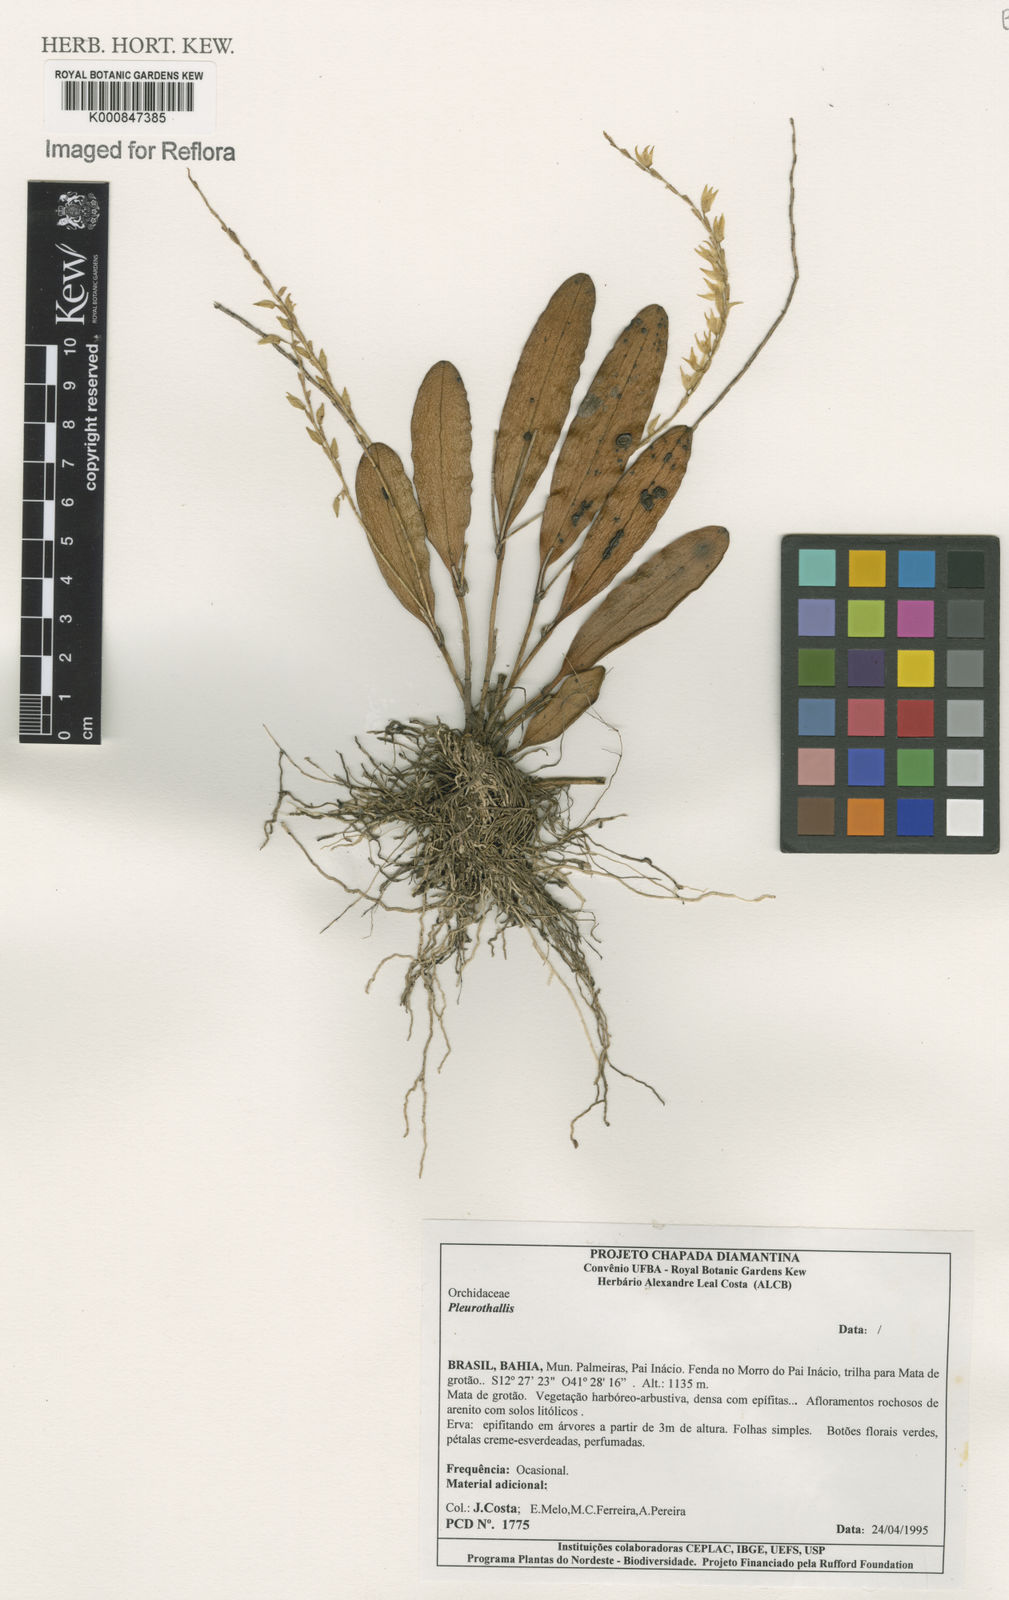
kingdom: Plantae
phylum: Tracheophyta
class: Liliopsida
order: Asparagales
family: Orchidaceae
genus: Pleurothallis
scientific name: Pleurothallis
